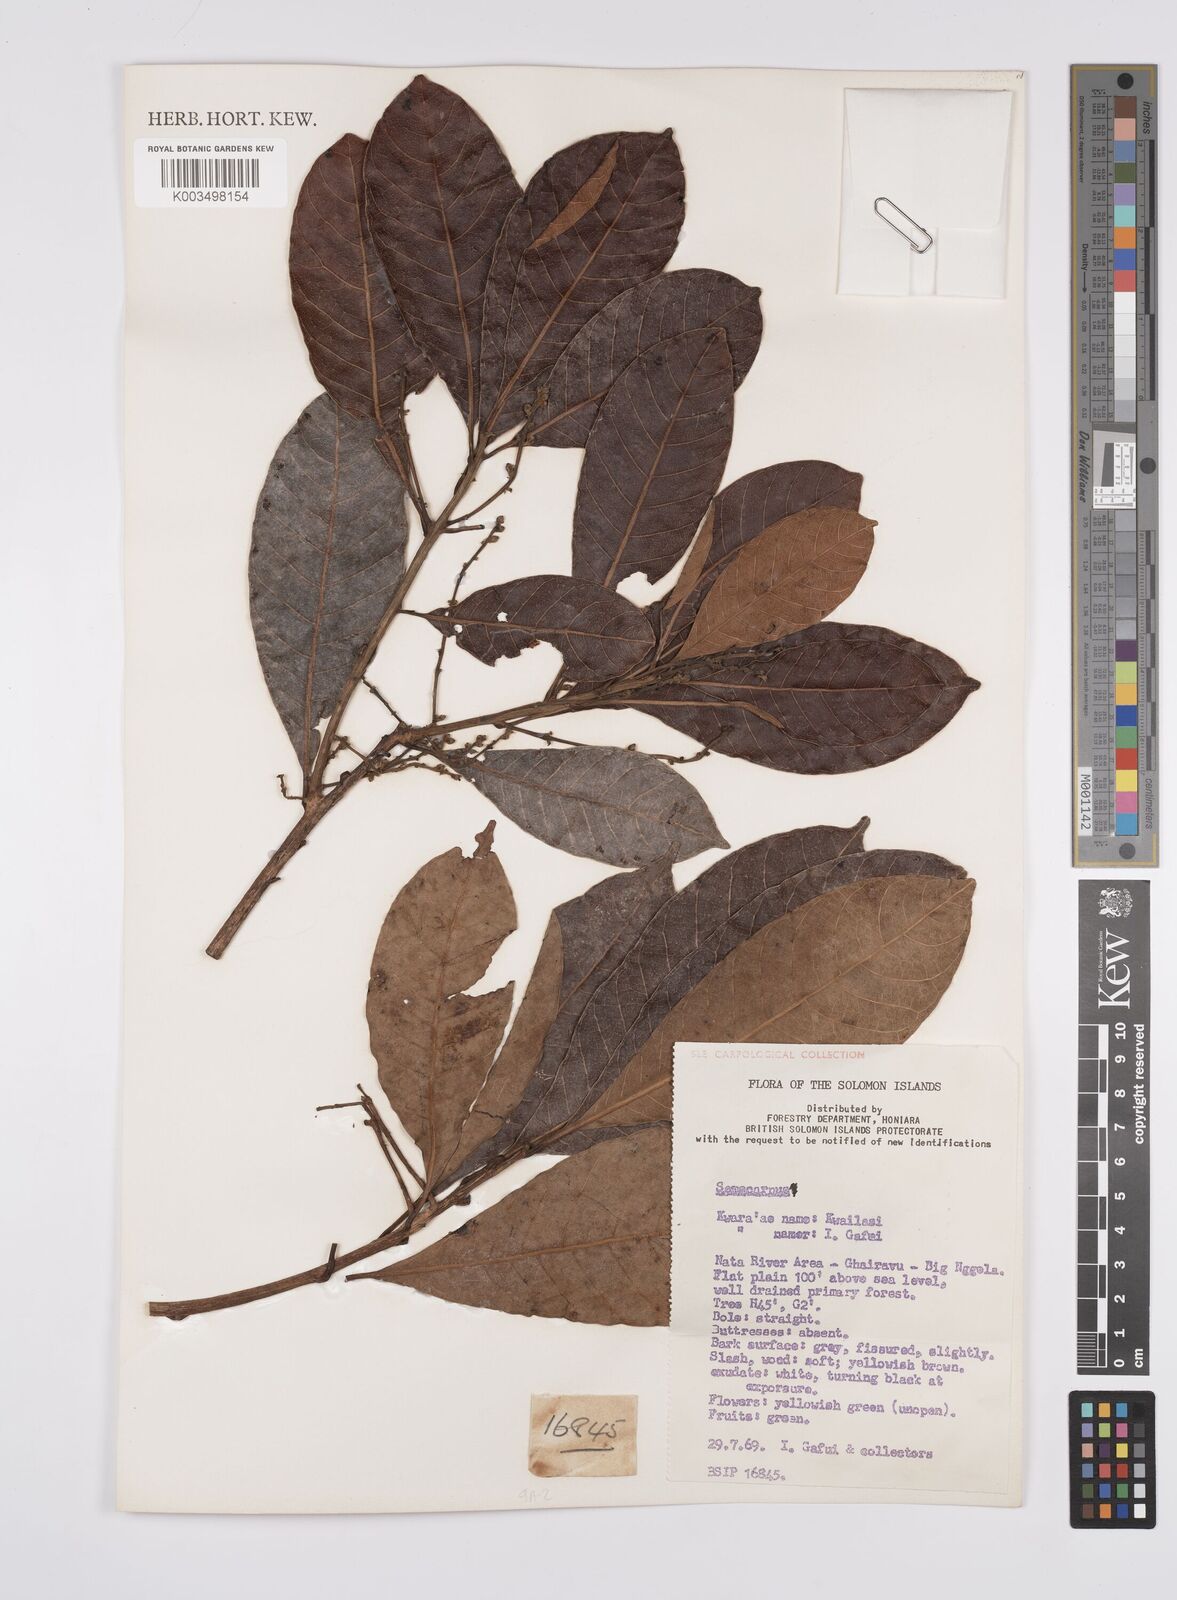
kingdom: Plantae
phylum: Tracheophyta
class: Magnoliopsida
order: Sapindales
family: Anacardiaceae
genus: Semecarpus
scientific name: Semecarpus
